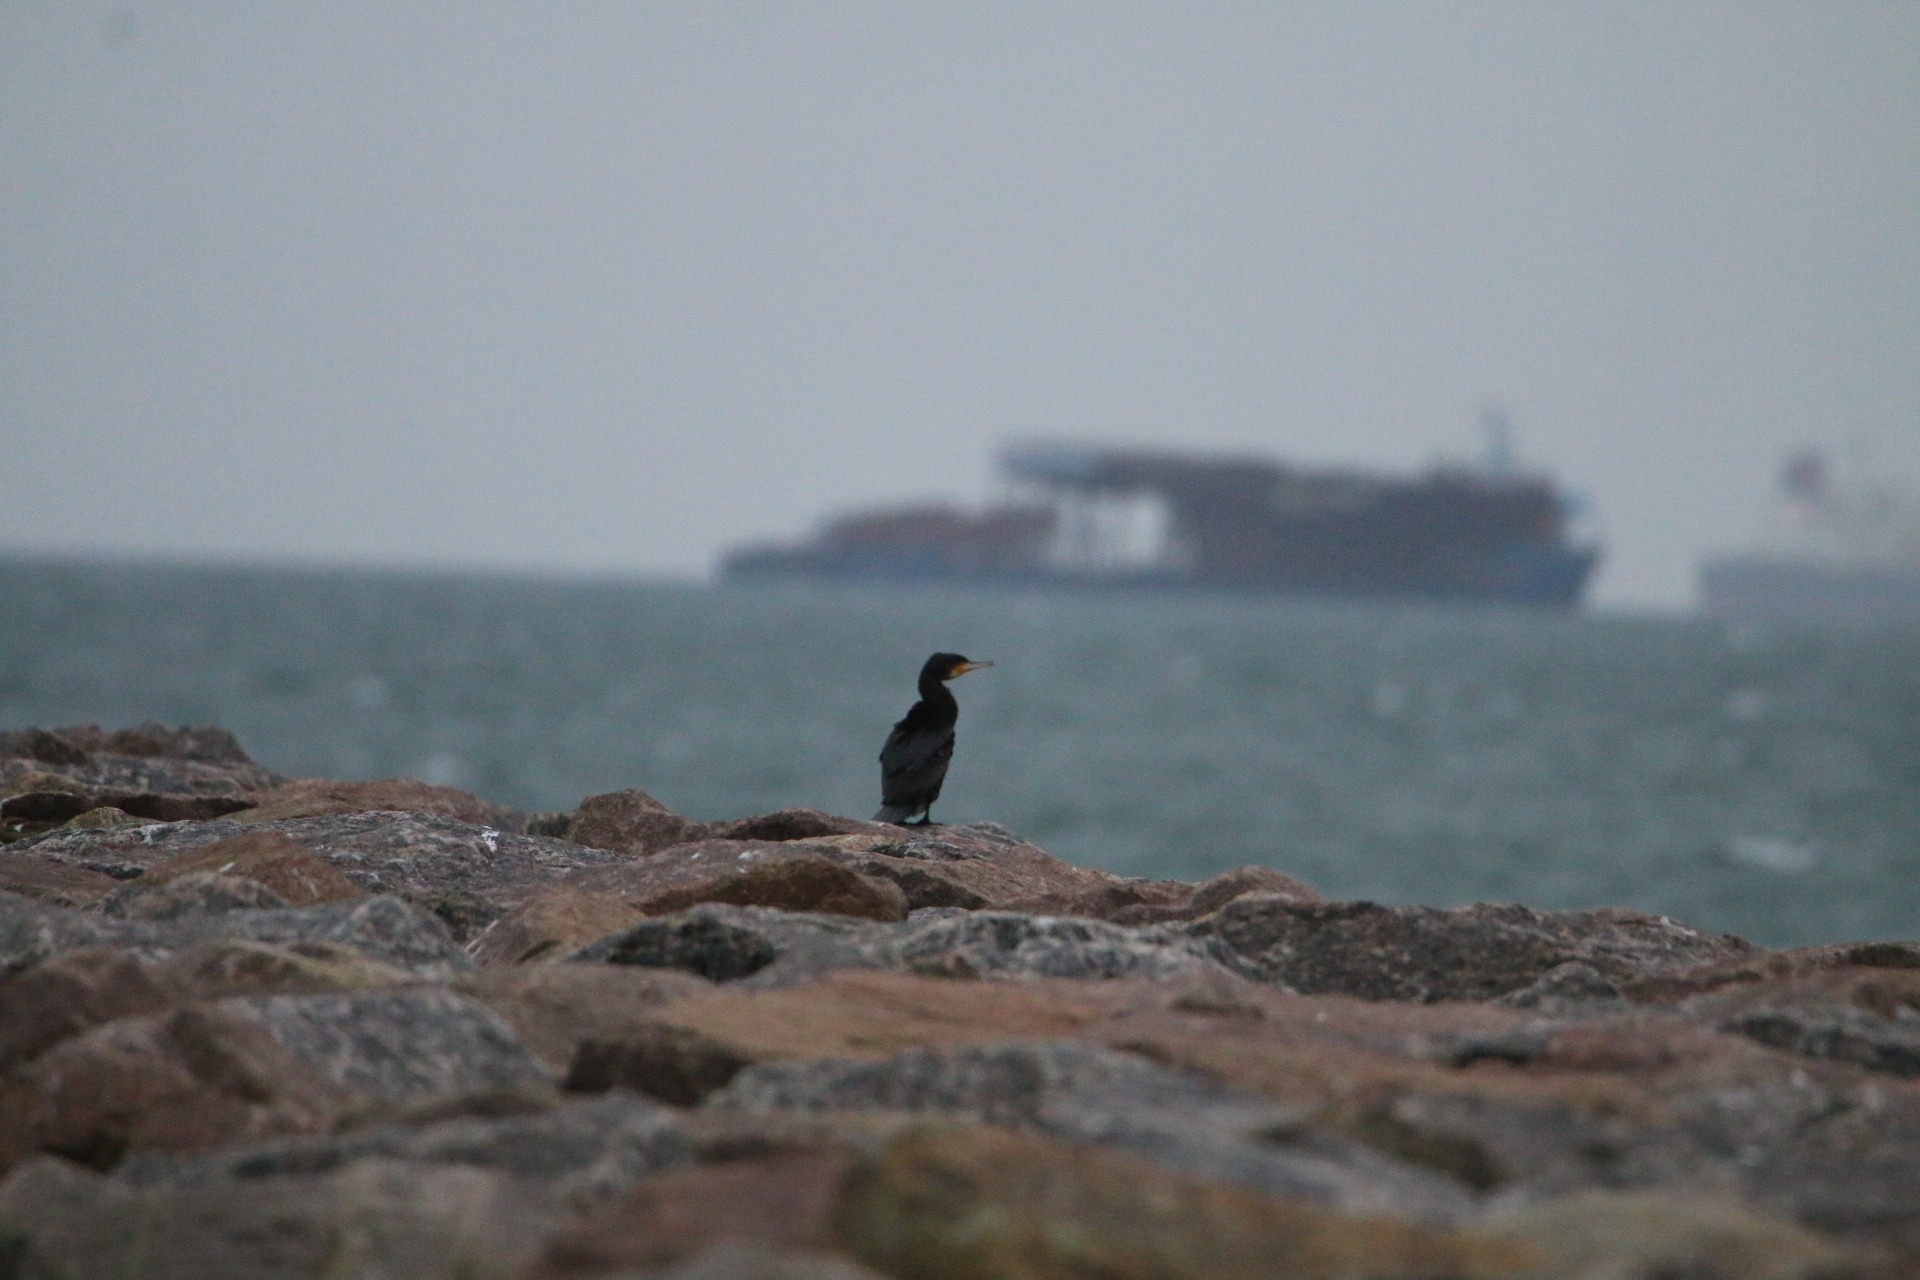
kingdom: Animalia
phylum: Chordata
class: Aves
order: Suliformes
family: Phalacrocoracidae
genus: Phalacrocorax
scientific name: Phalacrocorax carbo
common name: Skarv
